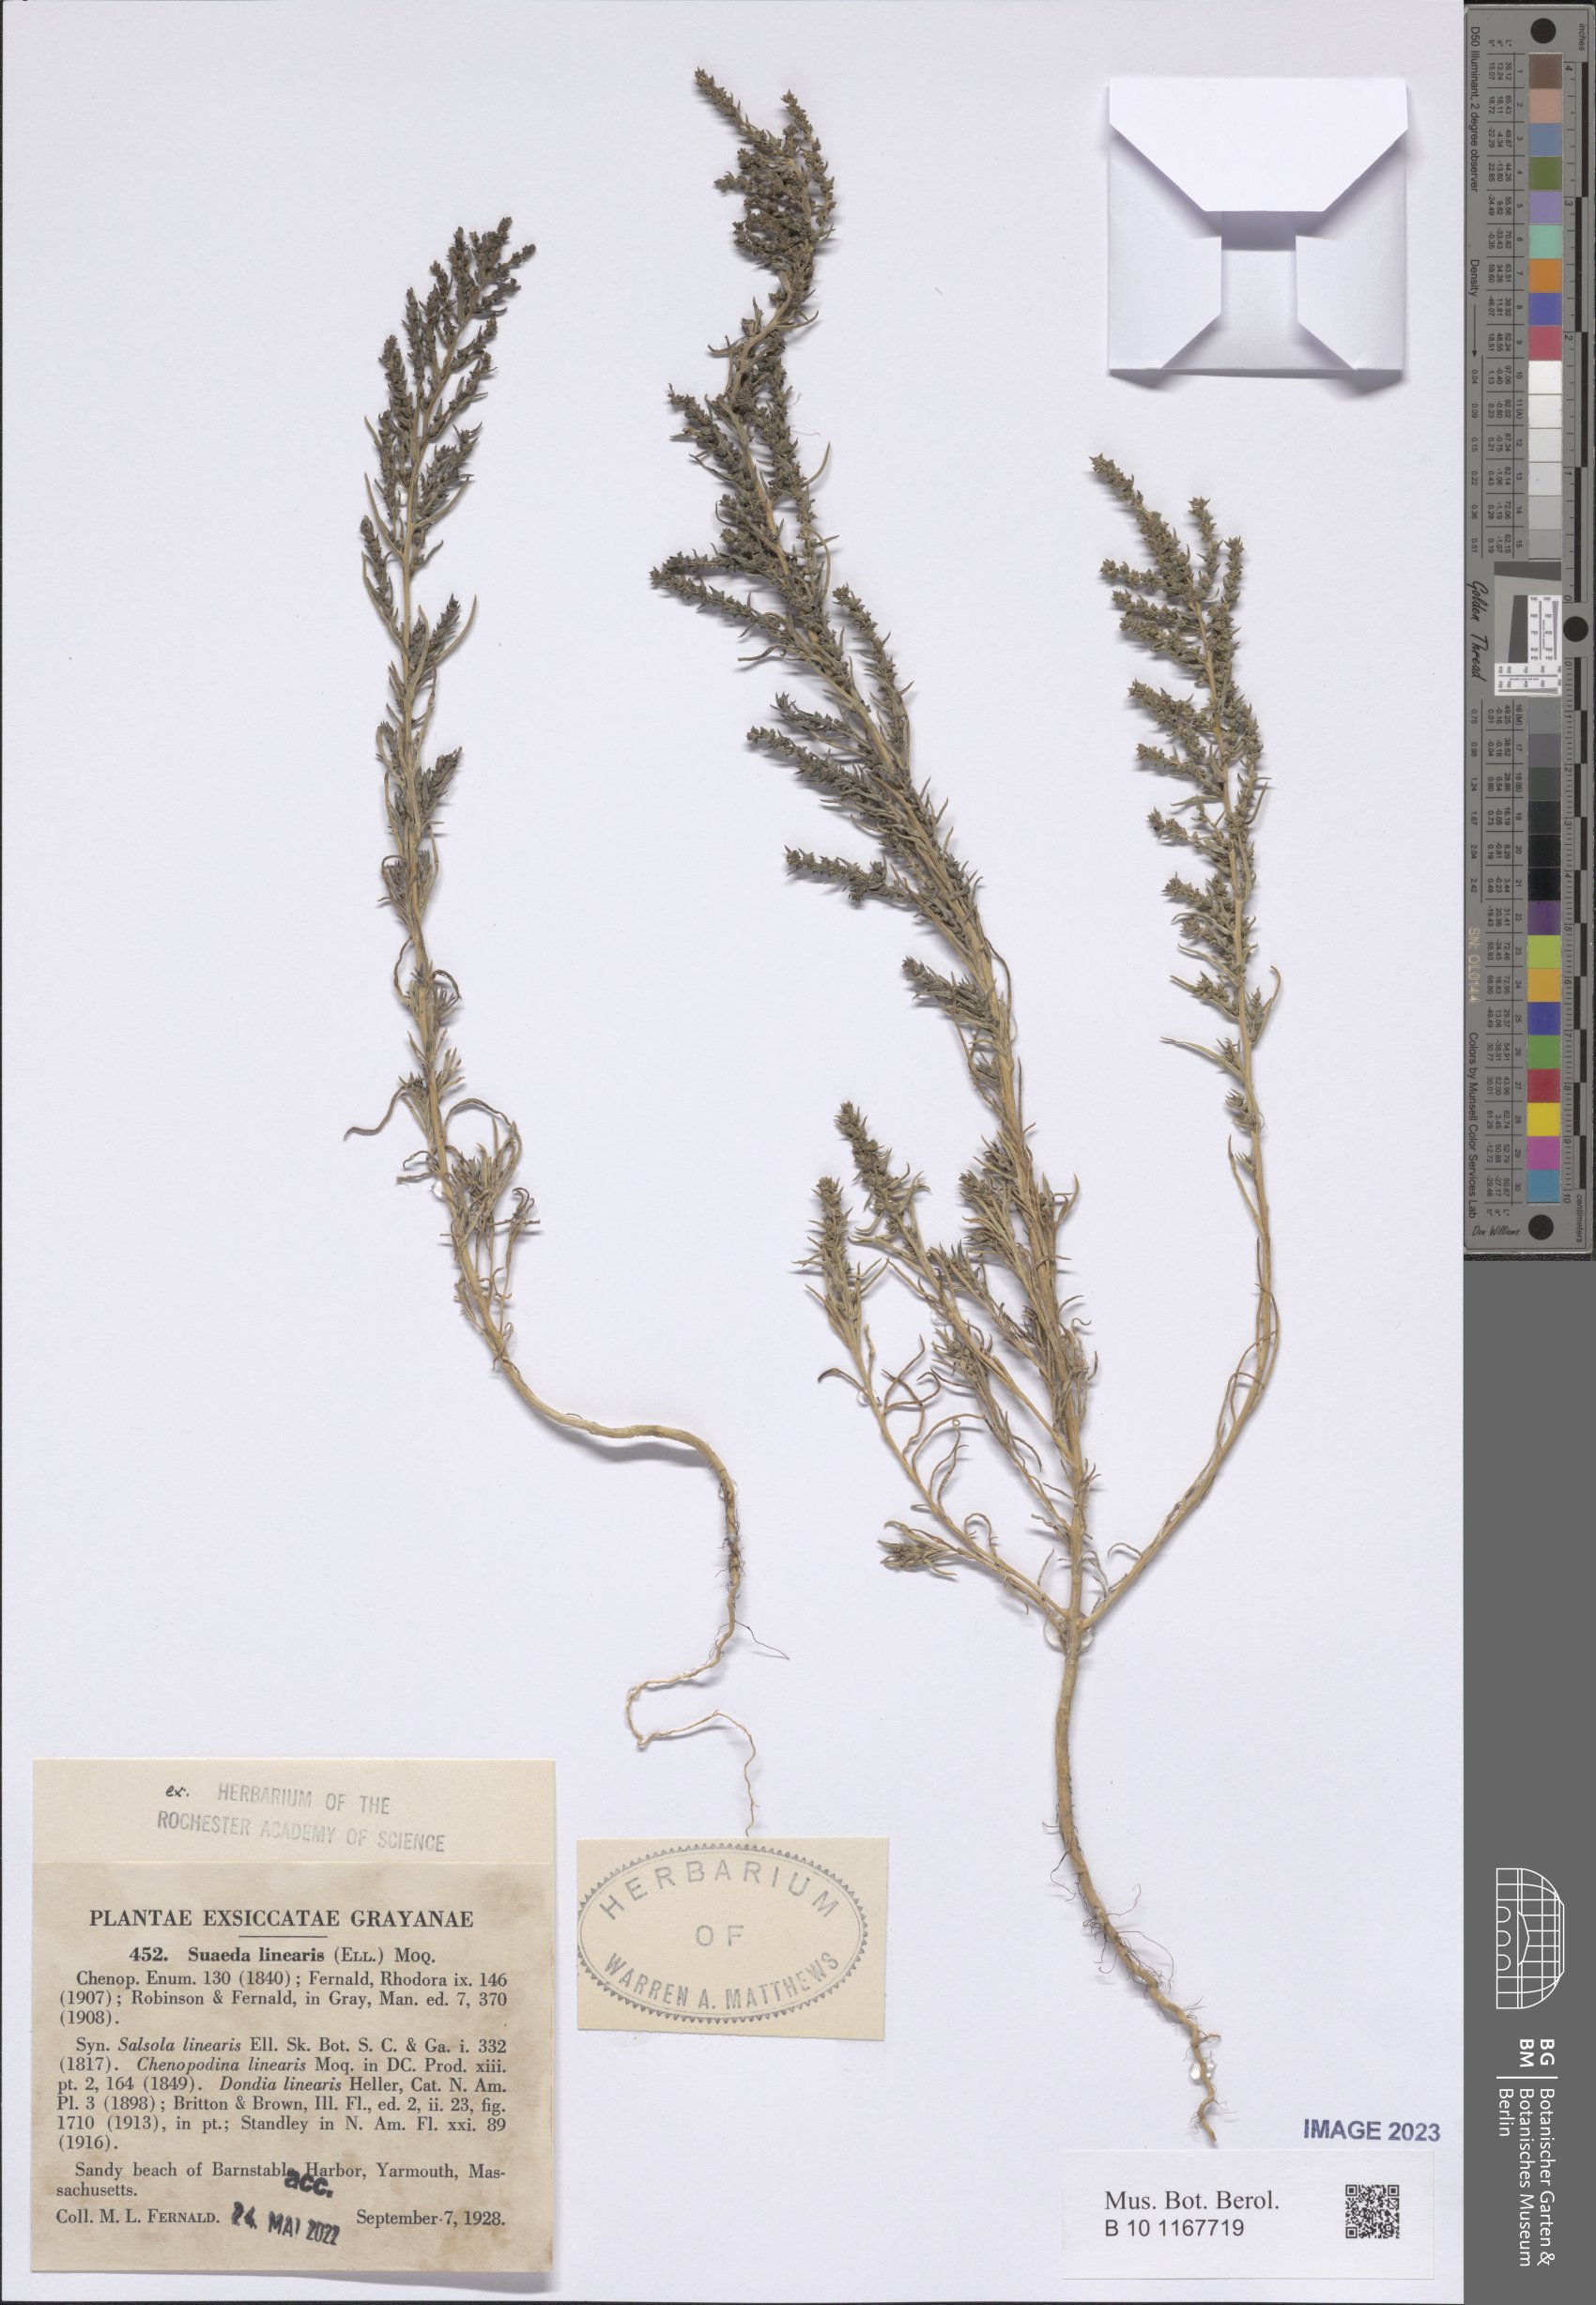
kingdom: Plantae
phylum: Tracheophyta
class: Magnoliopsida
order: Caryophyllales
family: Amaranthaceae
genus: Suaeda
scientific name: Suaeda linearis
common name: Annual seepweed
